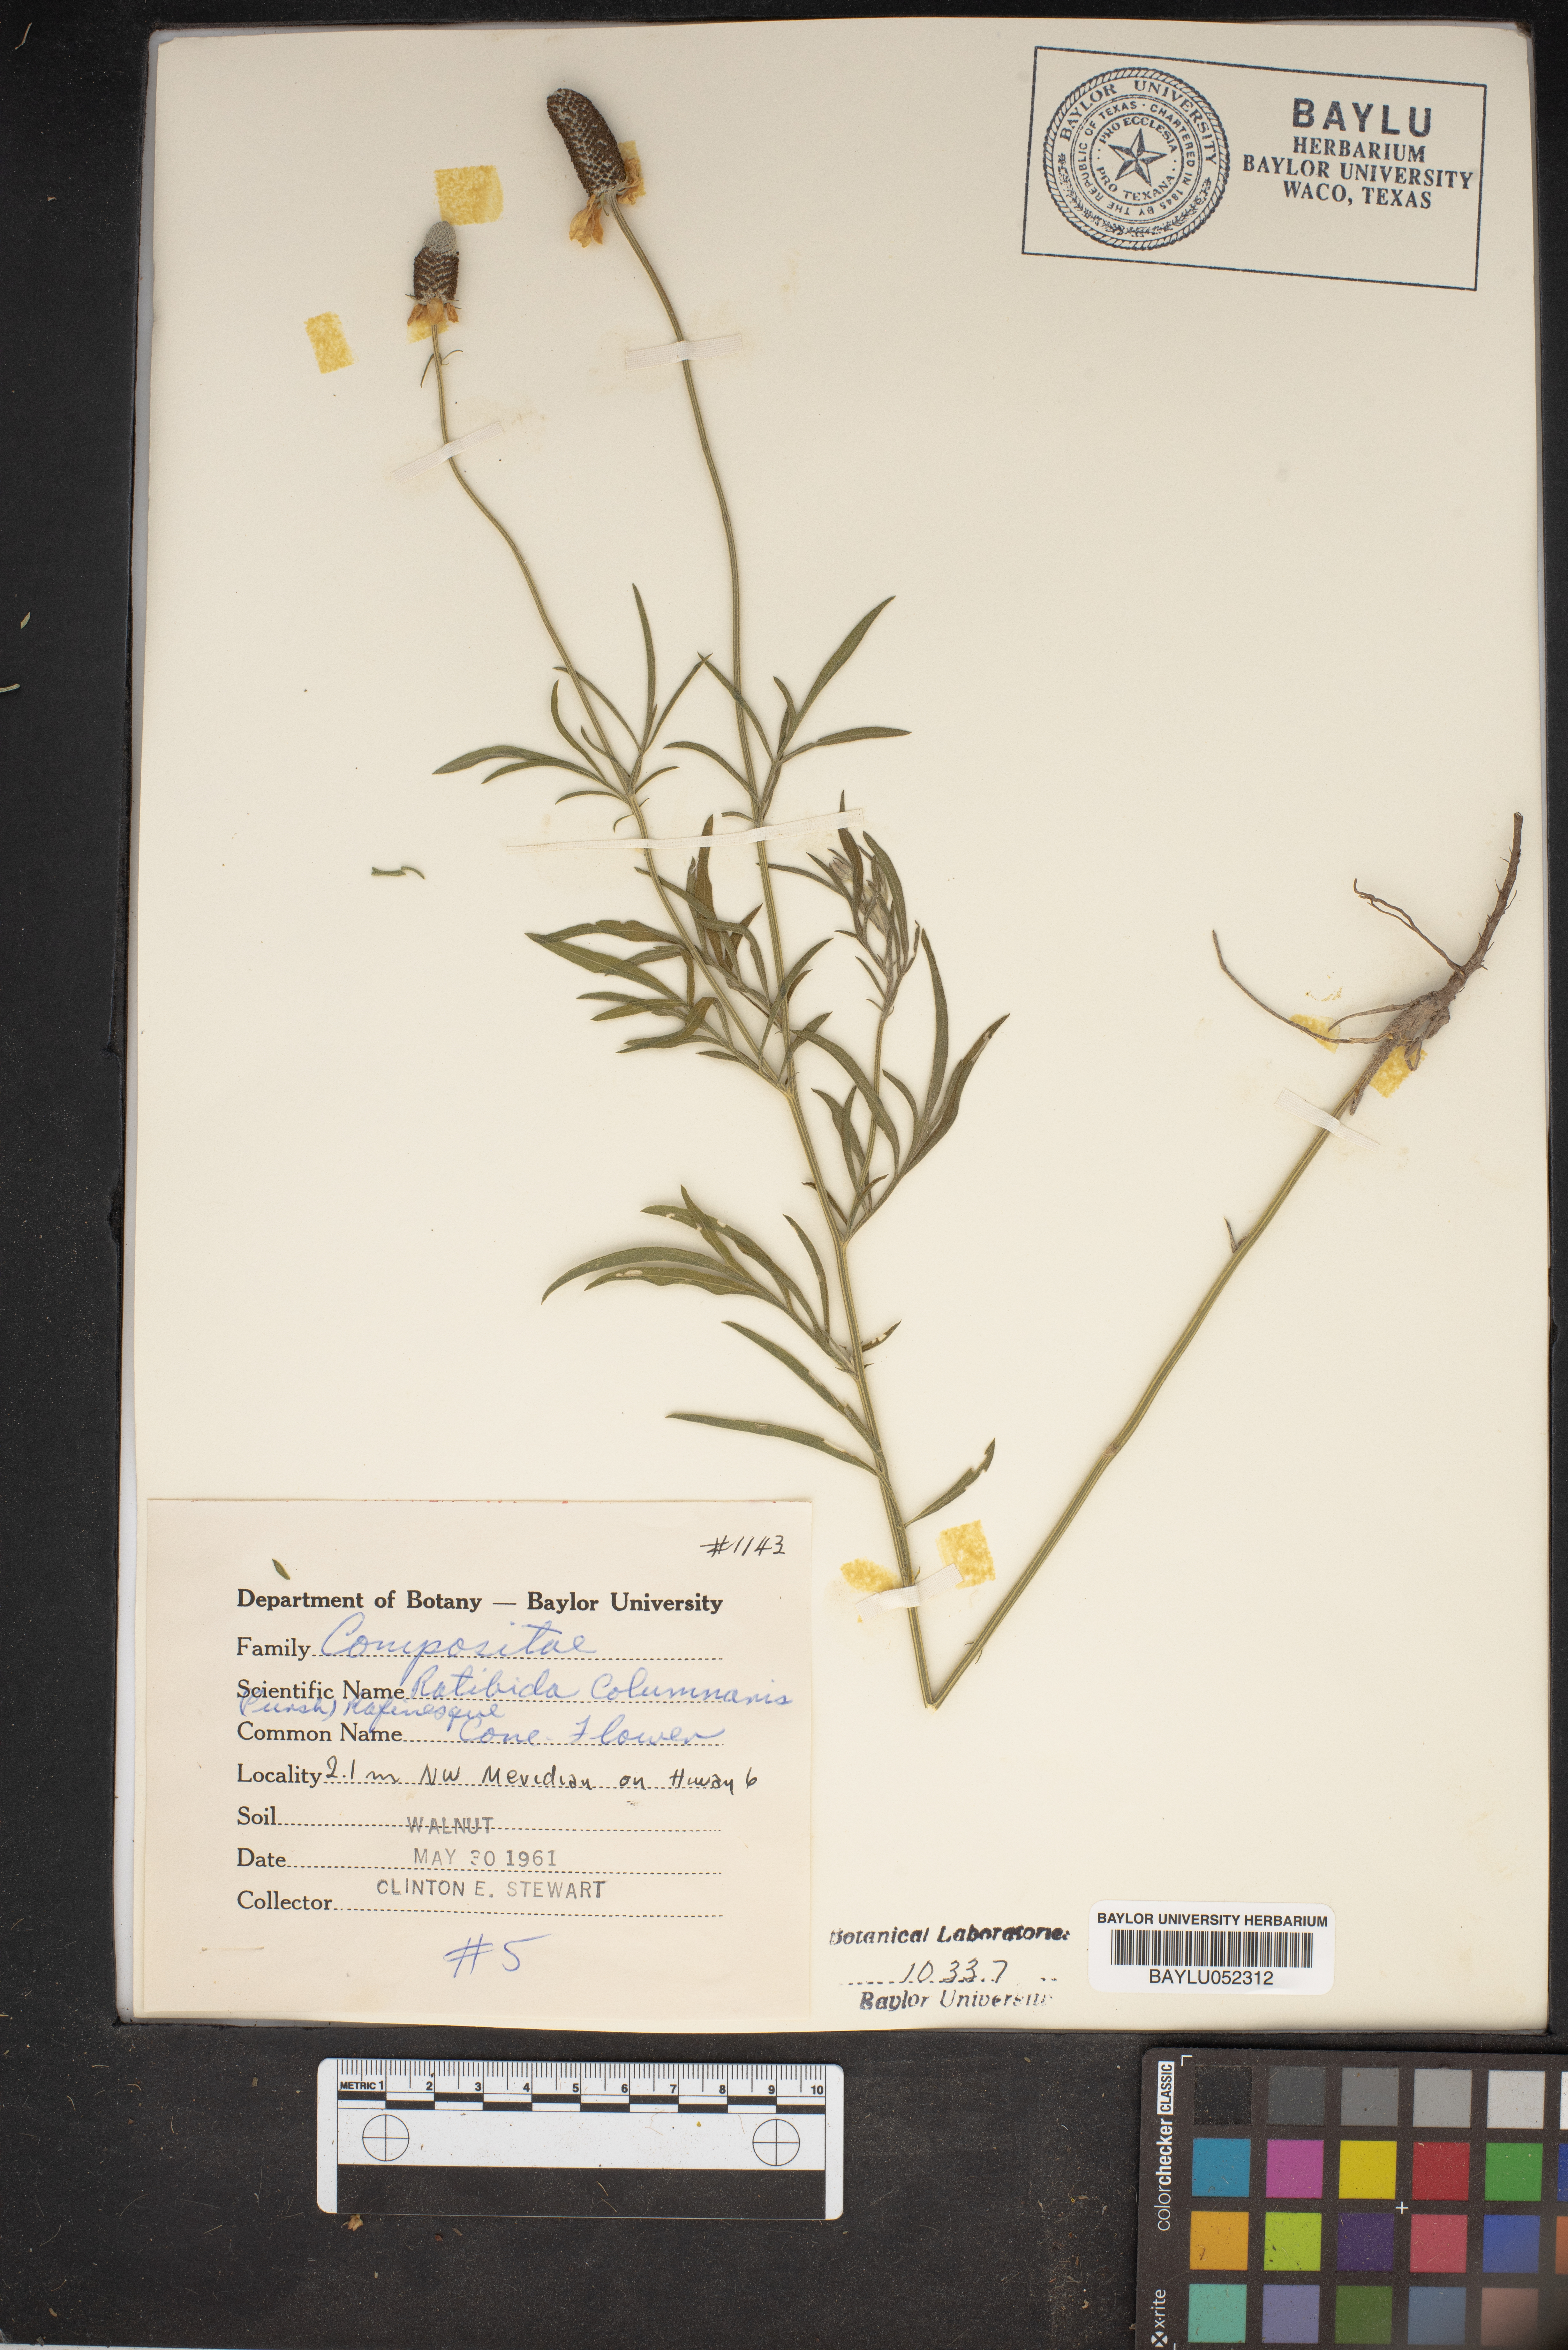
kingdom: Plantae
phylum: Tracheophyta
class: Magnoliopsida
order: Asterales
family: Asteraceae
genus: Ratibida
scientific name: Ratibida columnifera
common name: Prairie coneflower
